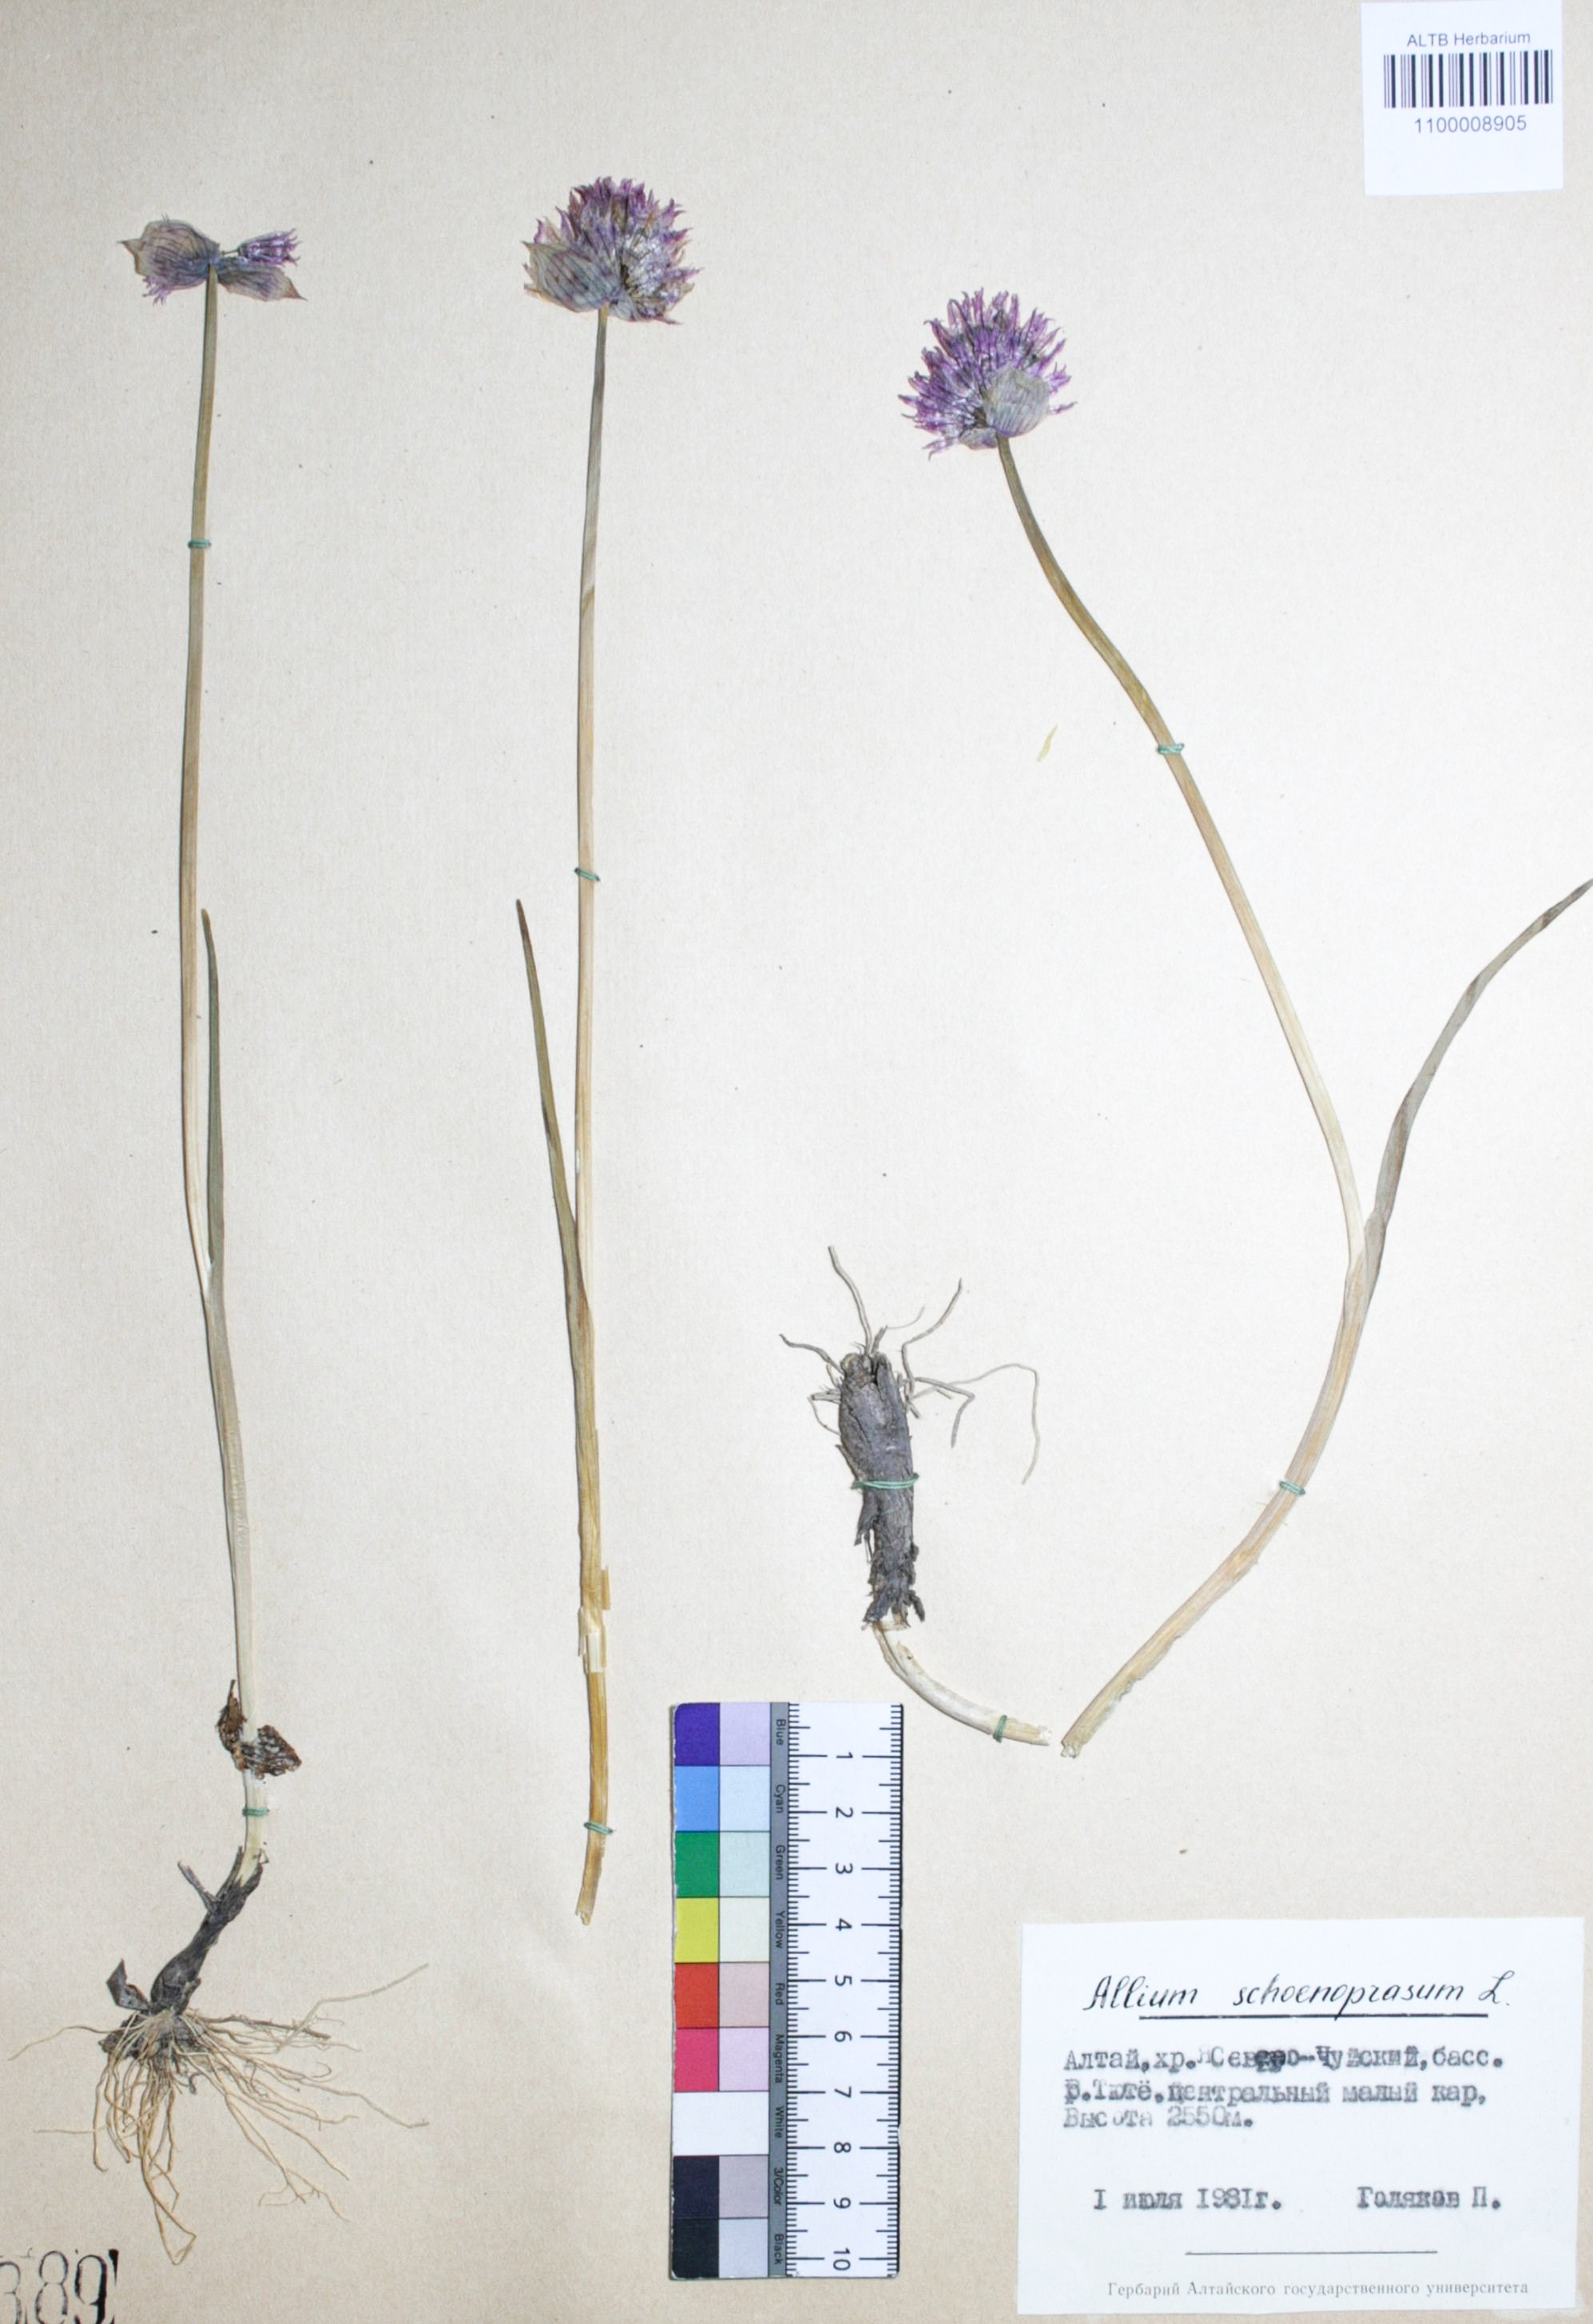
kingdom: Plantae
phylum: Tracheophyta
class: Liliopsida
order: Asparagales
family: Amaryllidaceae
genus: Allium
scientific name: Allium schoenoprasum
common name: Chives
